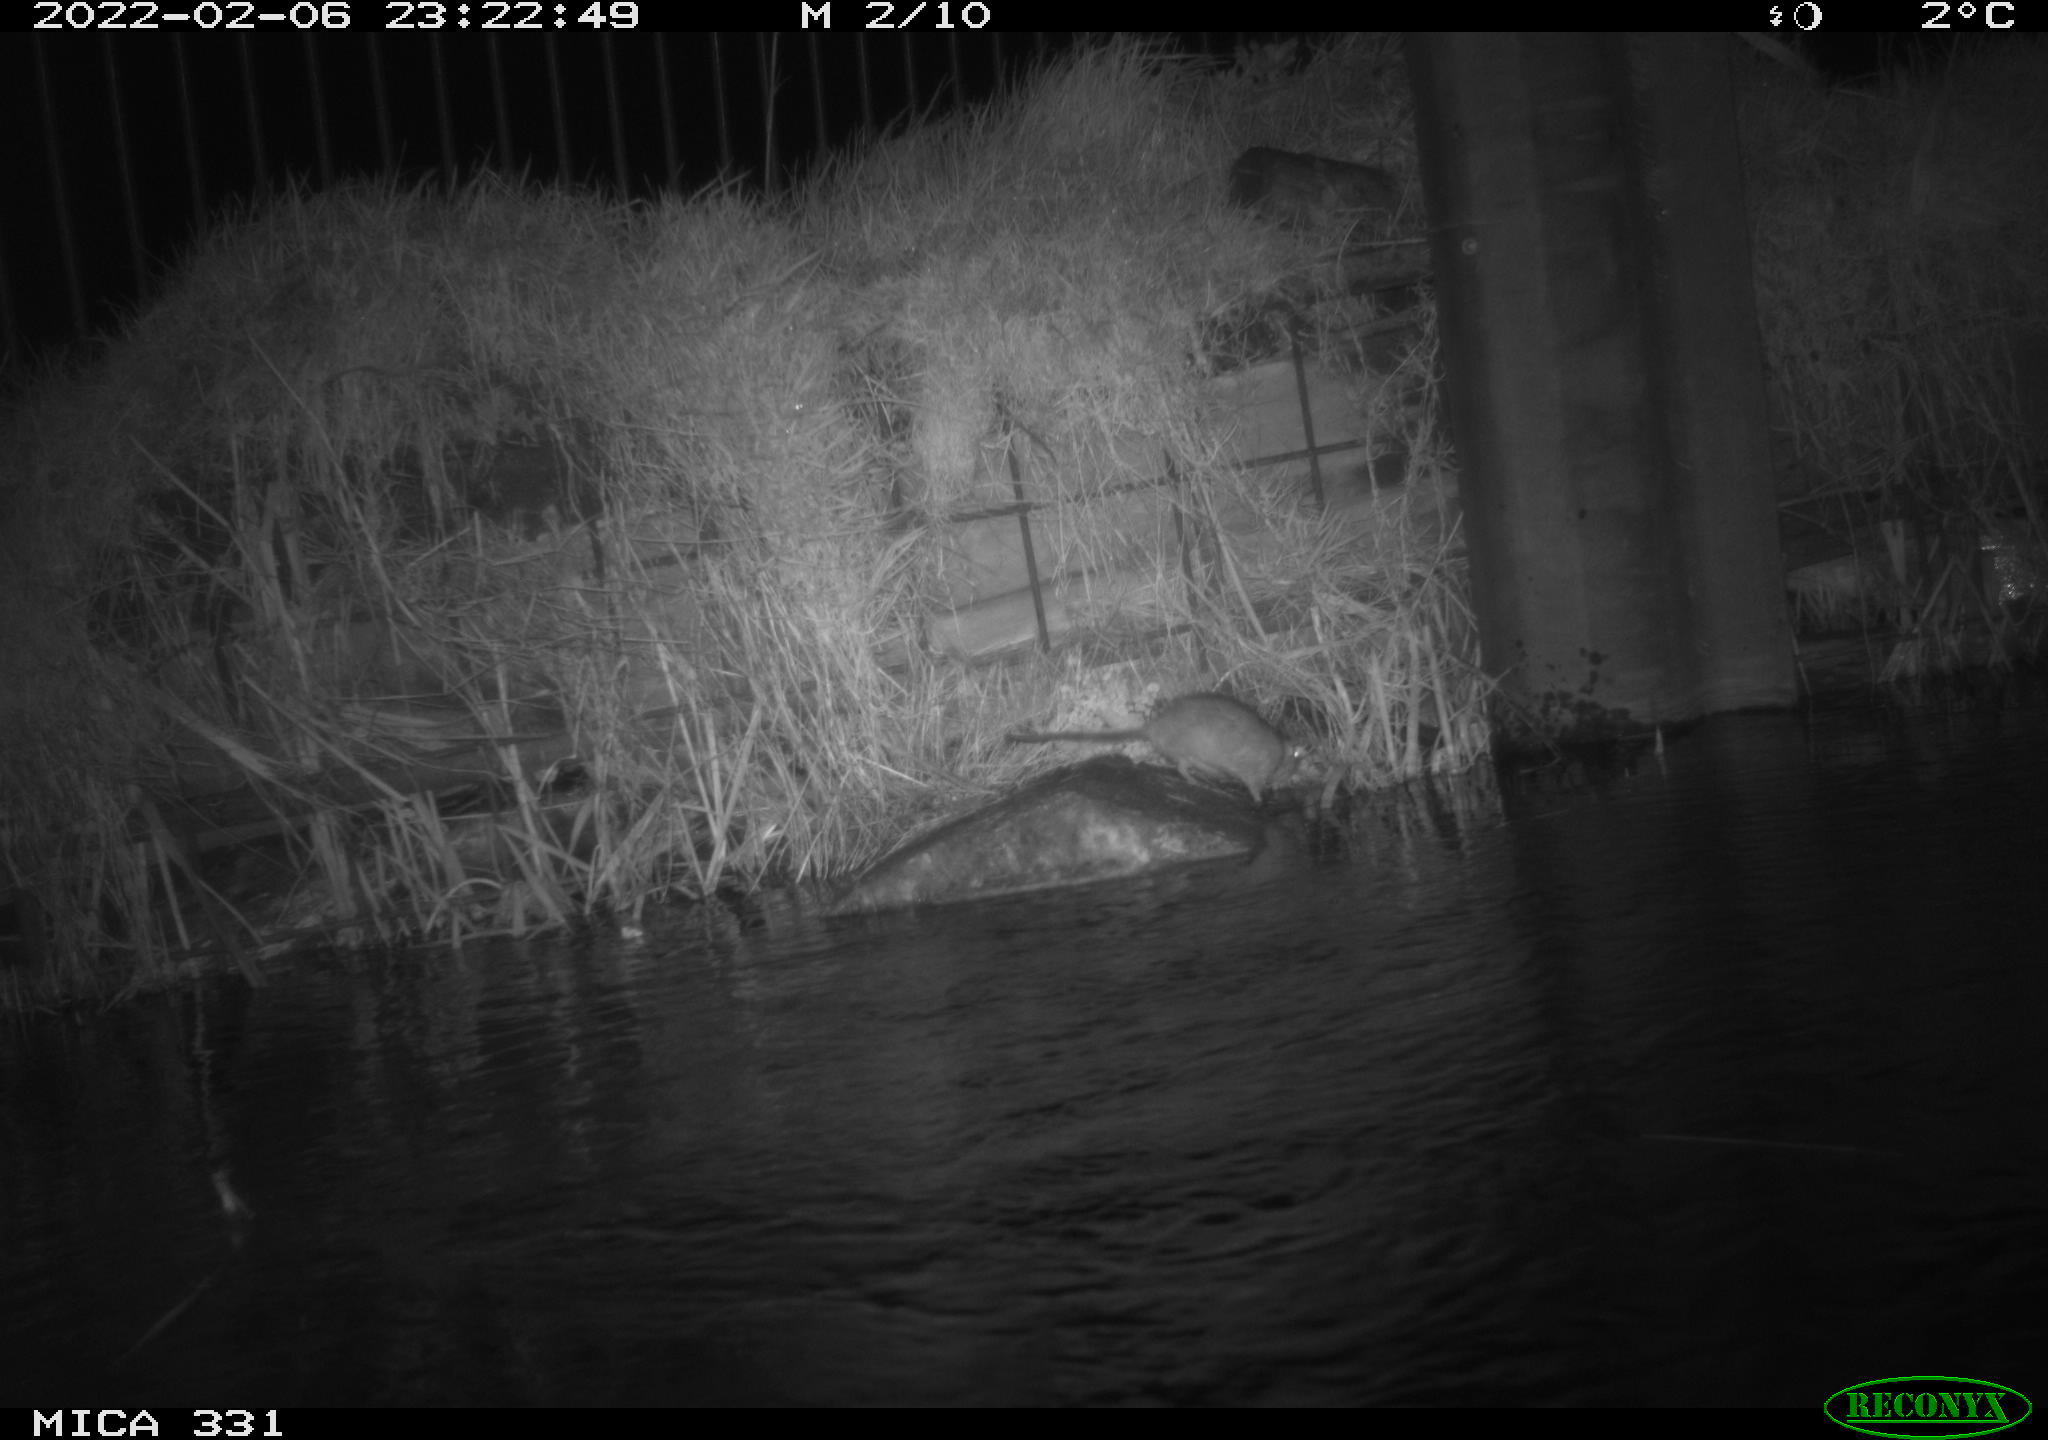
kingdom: Animalia
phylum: Chordata
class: Mammalia
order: Rodentia
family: Muridae
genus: Rattus
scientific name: Rattus norvegicus
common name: Brown rat
